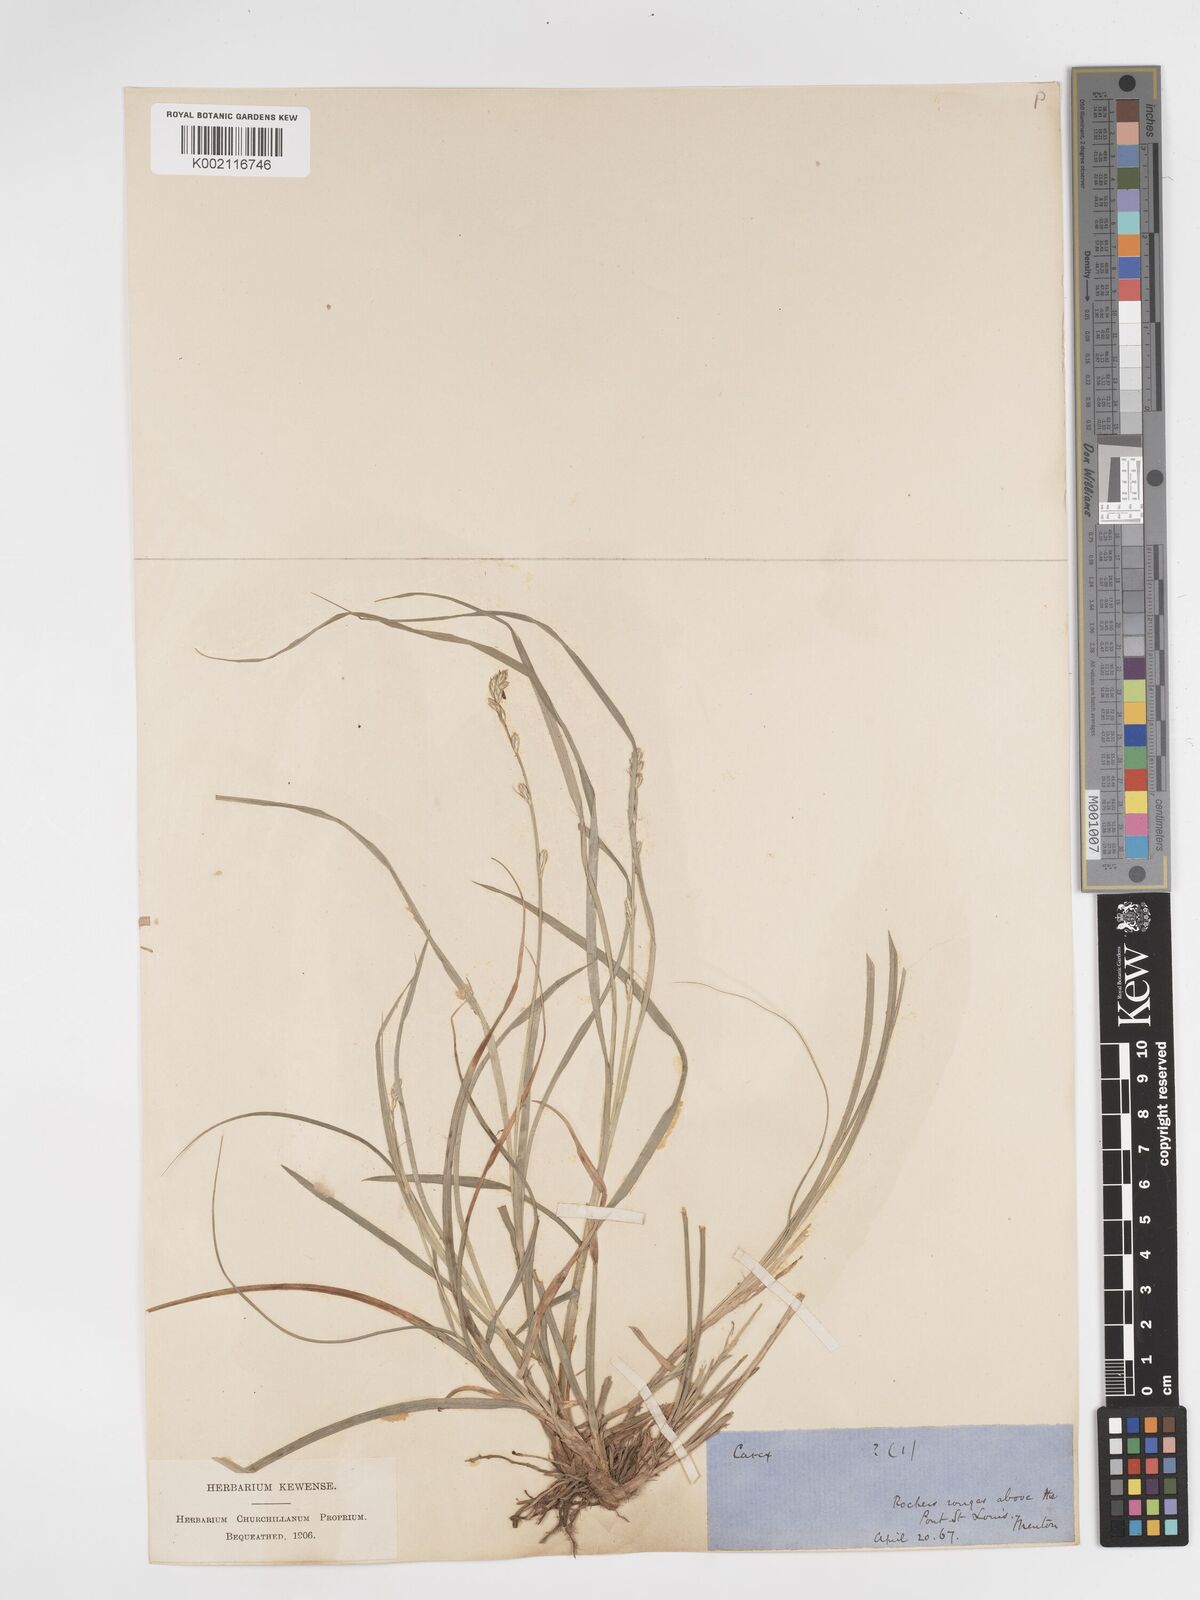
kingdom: Plantae
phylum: Tracheophyta
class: Liliopsida
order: Poales
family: Cyperaceae
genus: Carex
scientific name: Carex divulsa
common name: Grassland sedge
